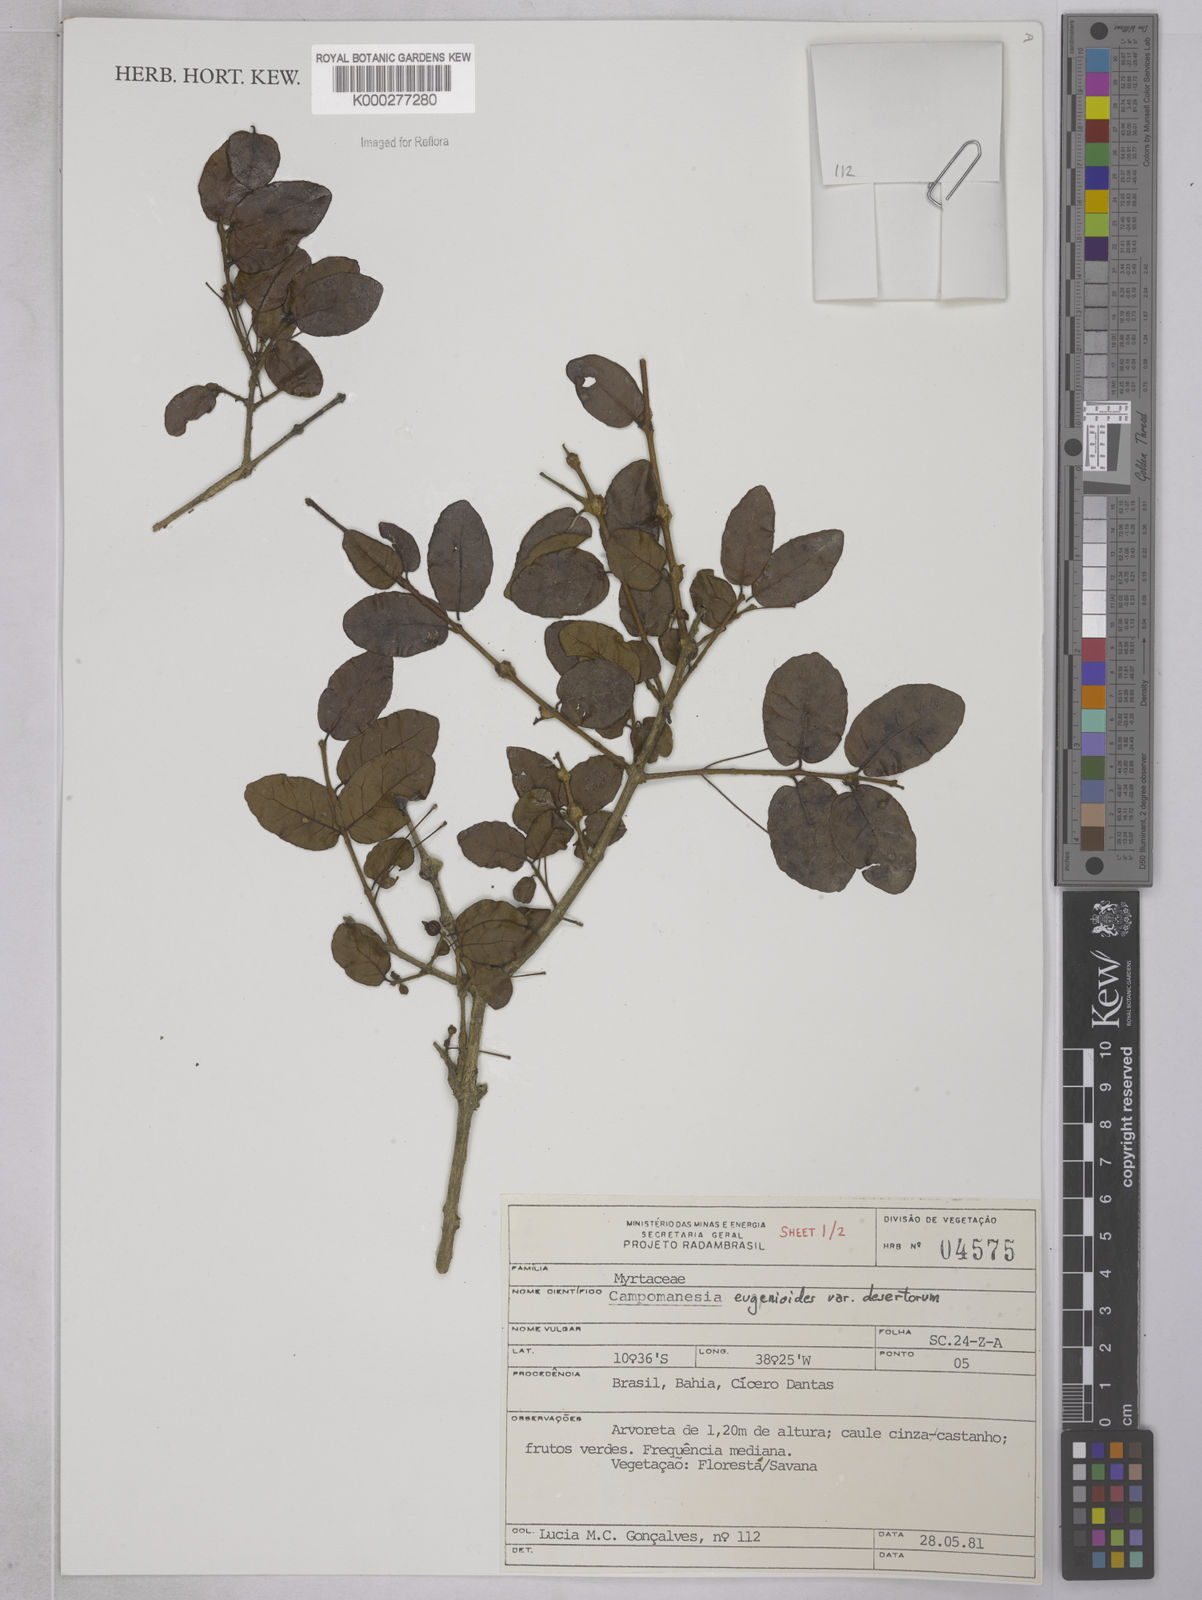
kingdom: Plantae
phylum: Tracheophyta
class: Magnoliopsida
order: Myrtales
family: Myrtaceae
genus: Campomanesia
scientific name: Campomanesia eugenioides
